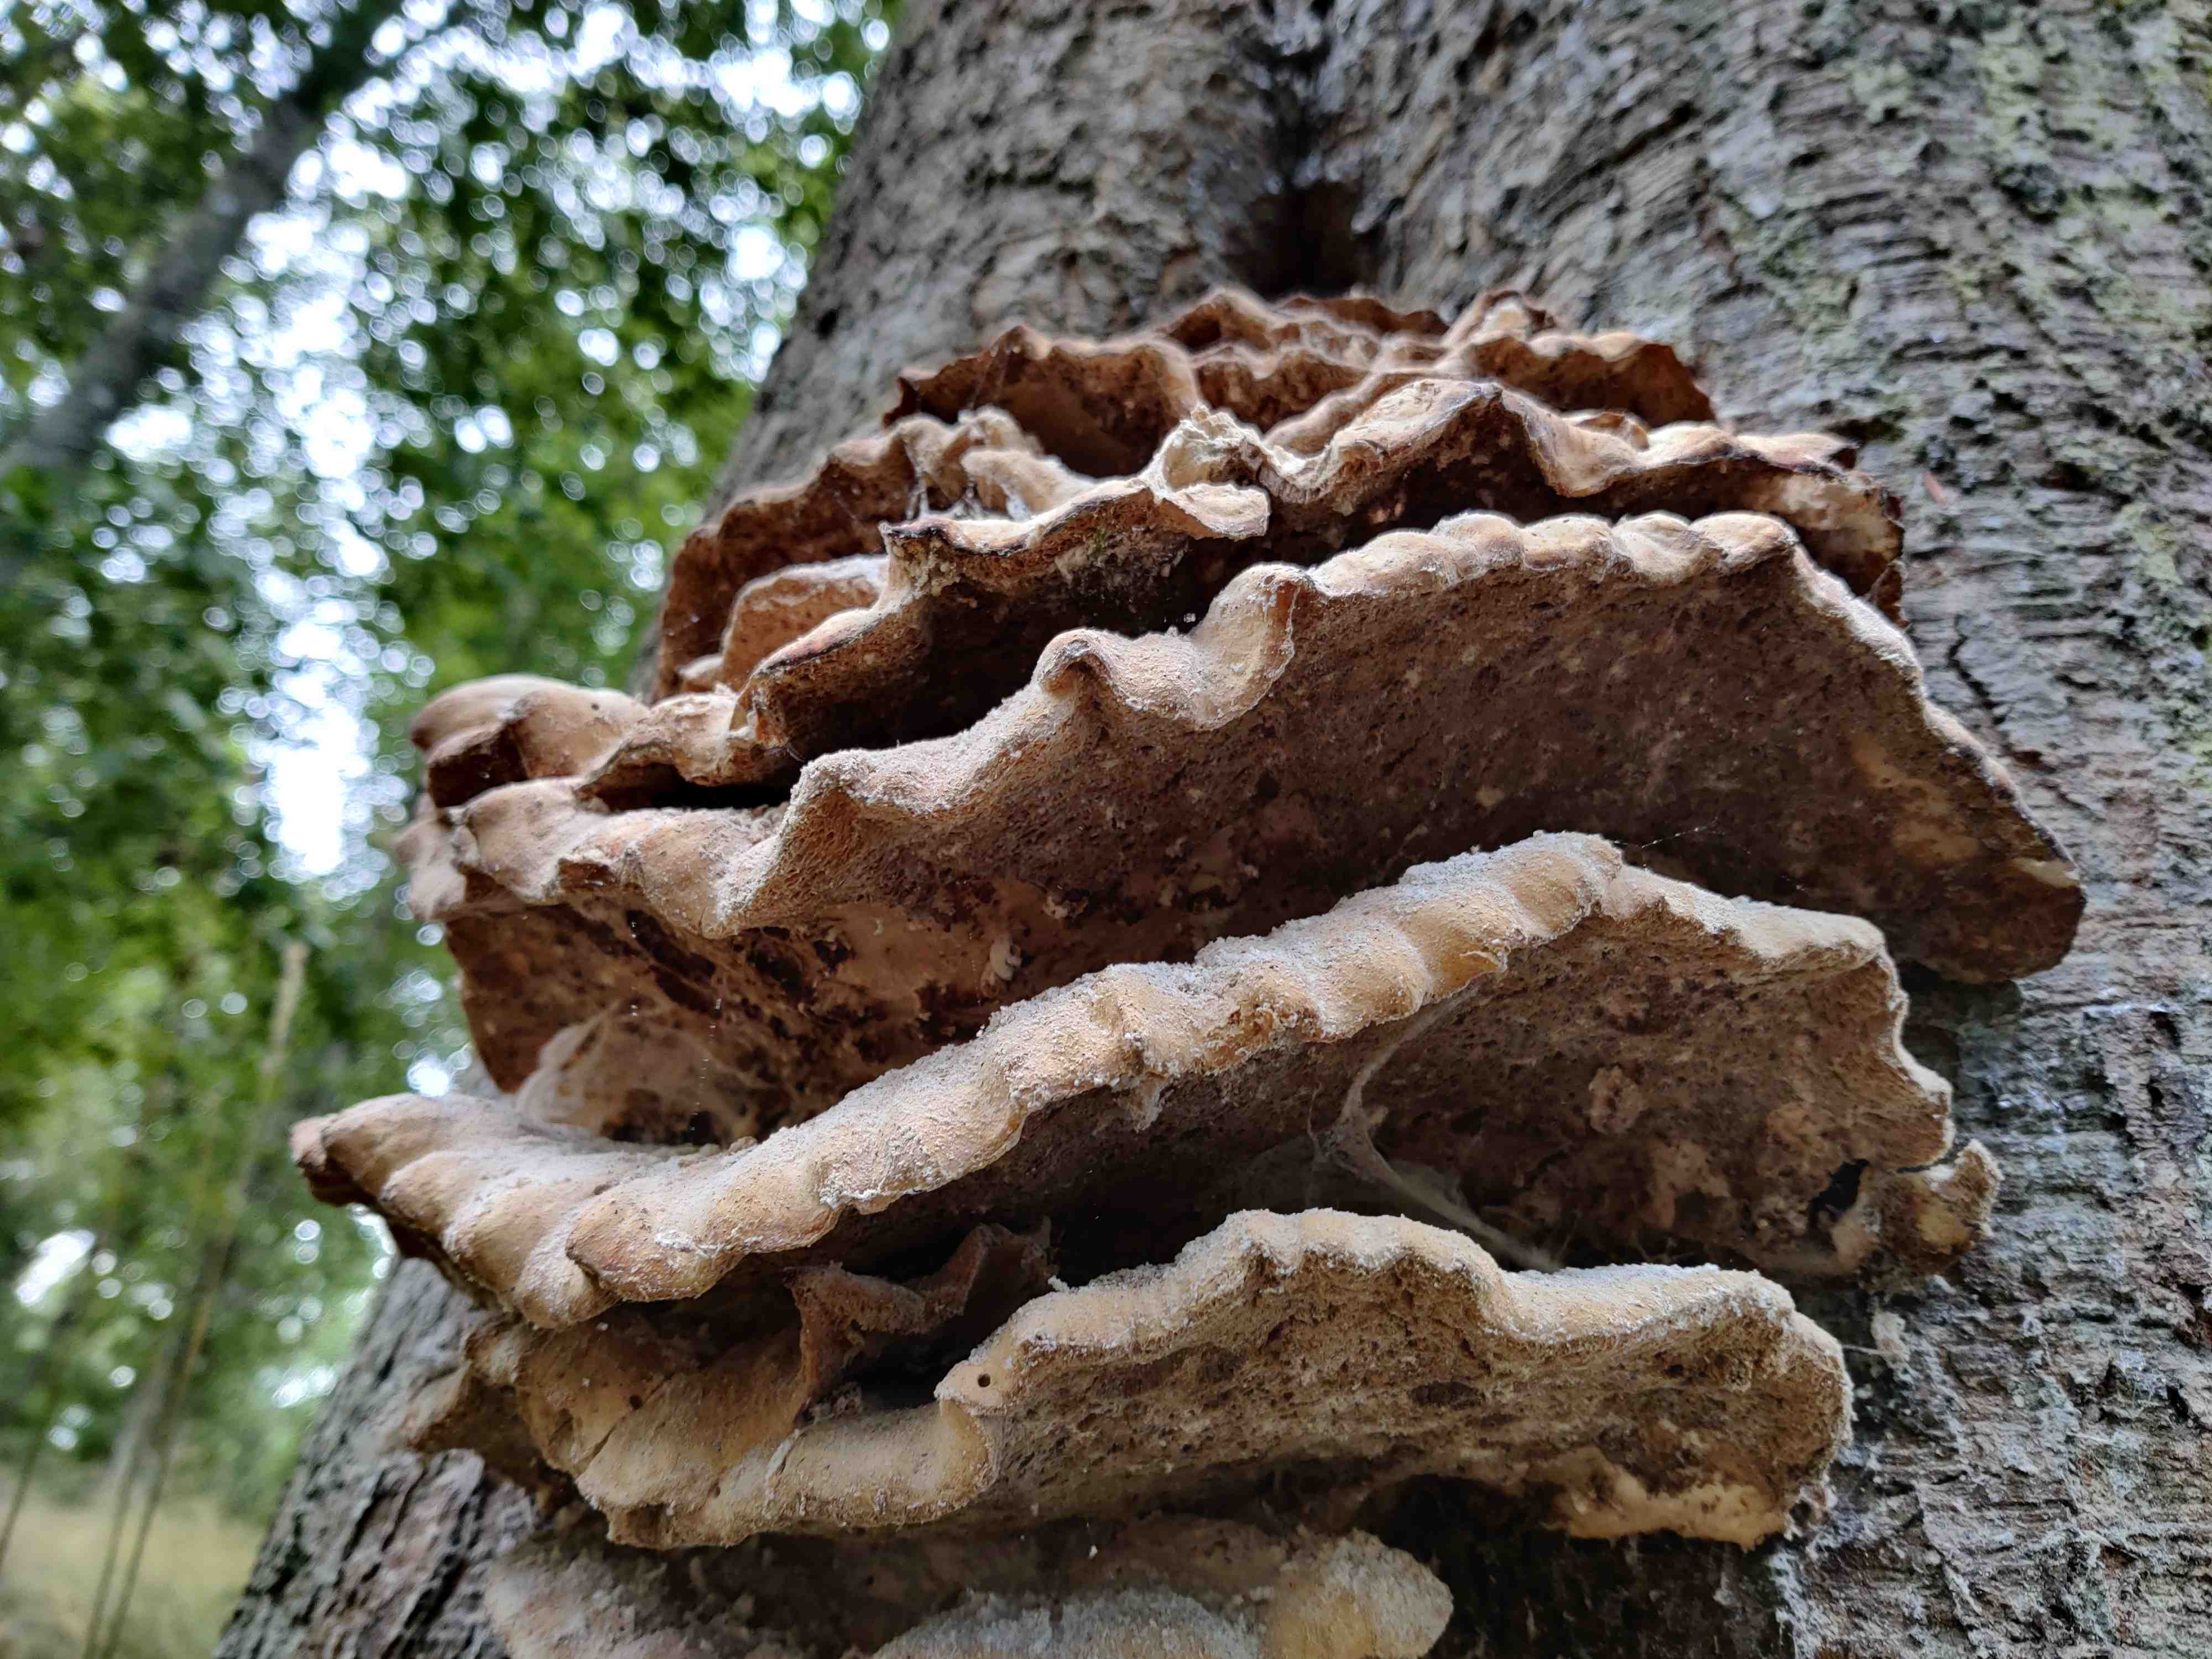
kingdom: Fungi
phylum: Basidiomycota
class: Agaricomycetes
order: Polyporales
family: Laetiporaceae
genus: Laetiporus
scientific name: Laetiporus sulphureus
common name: svovlporesvamp
